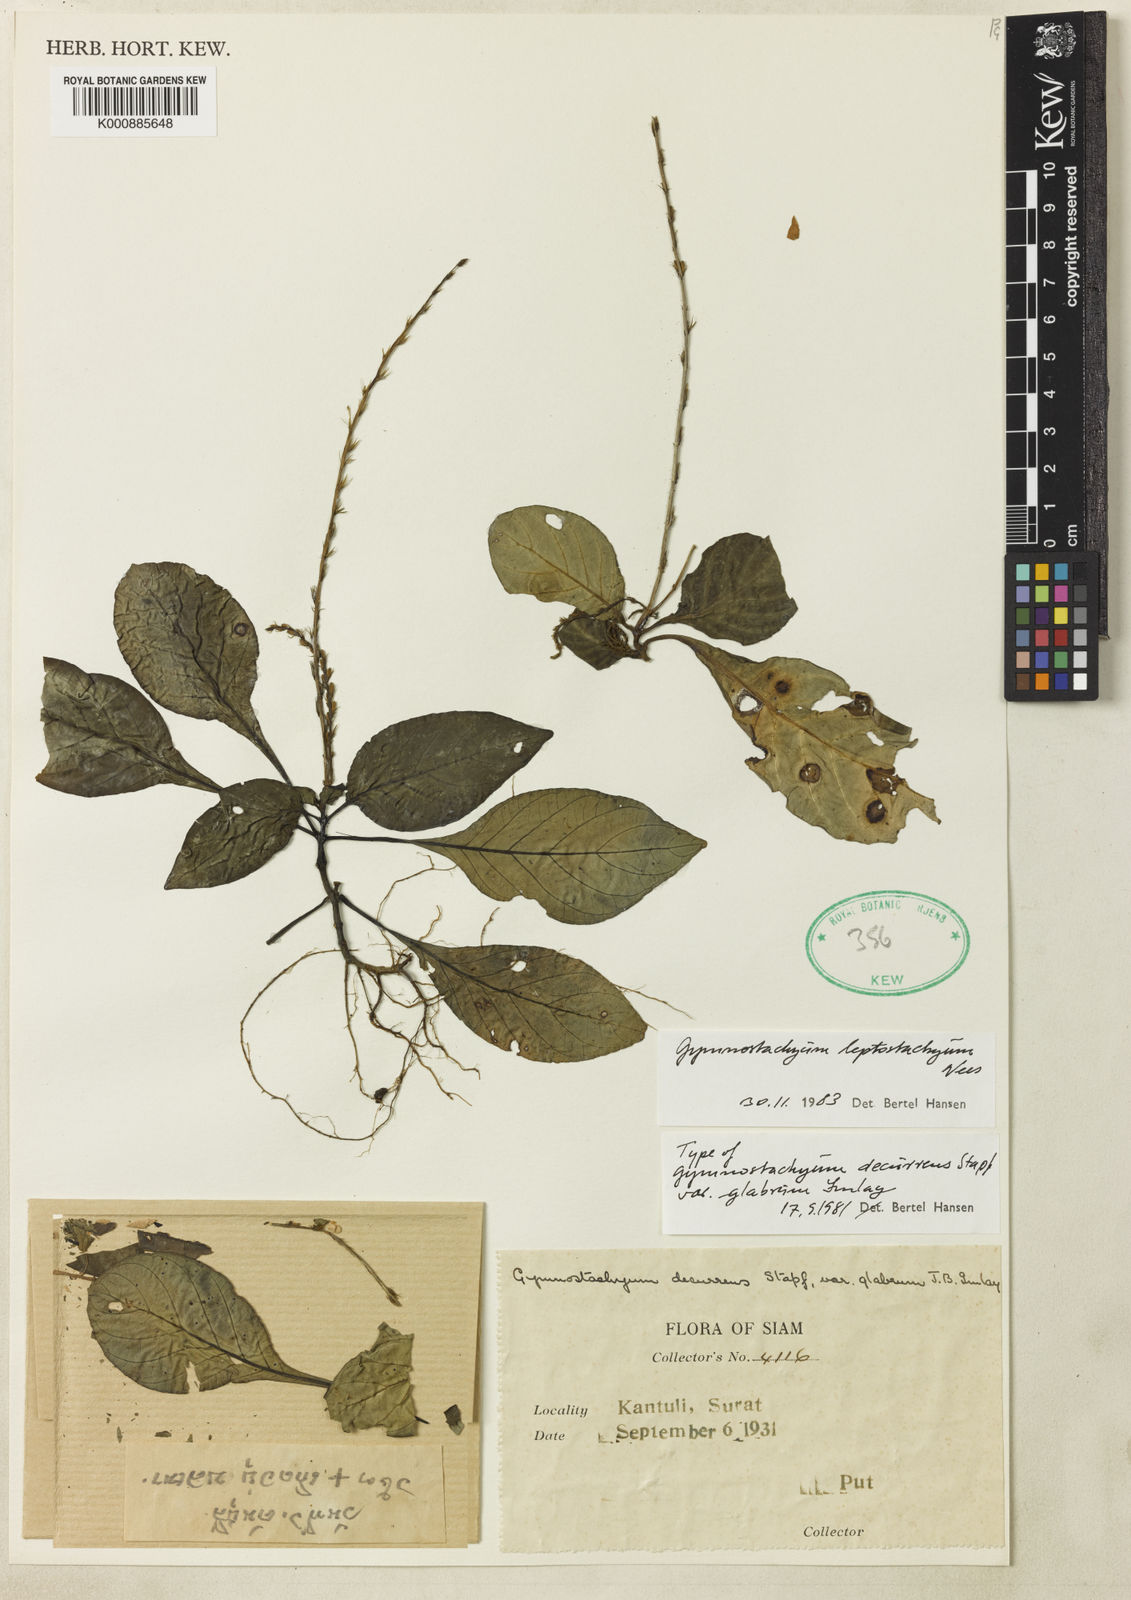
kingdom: Plantae
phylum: Tracheophyta
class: Magnoliopsida
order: Lamiales
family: Acanthaceae
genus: Gymnostachyum
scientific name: Gymnostachyum leptostachyum
